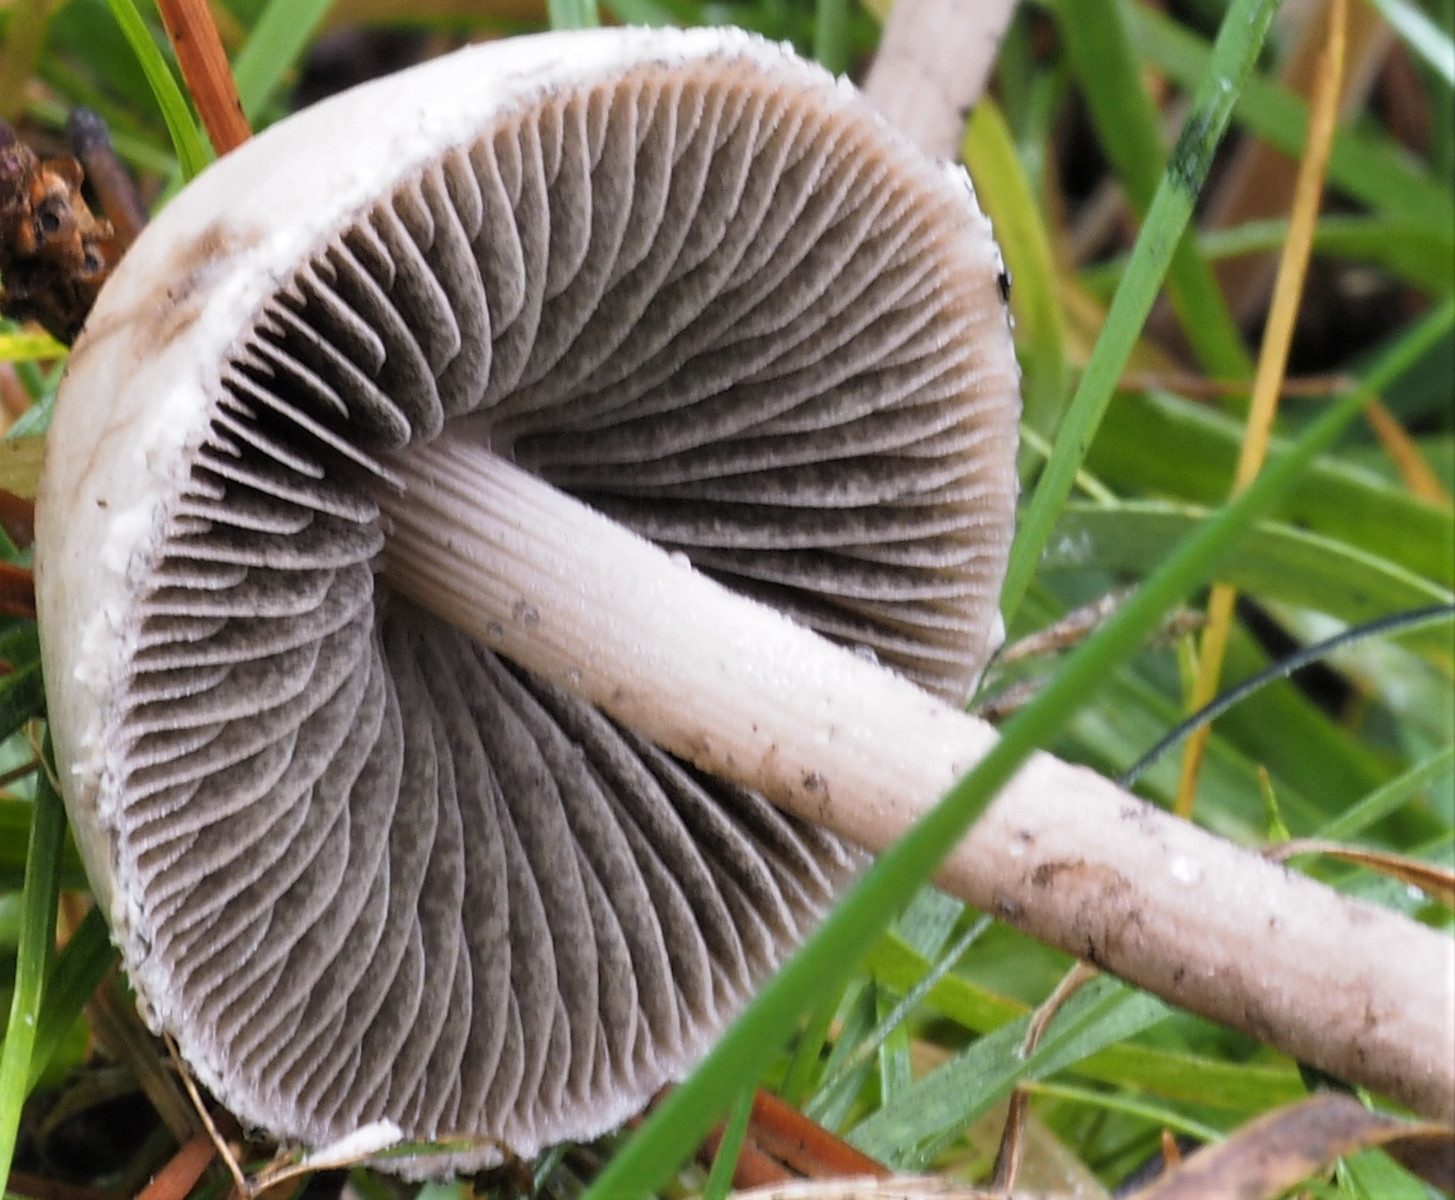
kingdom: Fungi
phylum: Basidiomycota
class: Agaricomycetes
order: Agaricales
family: Bolbitiaceae
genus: Panaeolus
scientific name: Panaeolus papilionaceus
